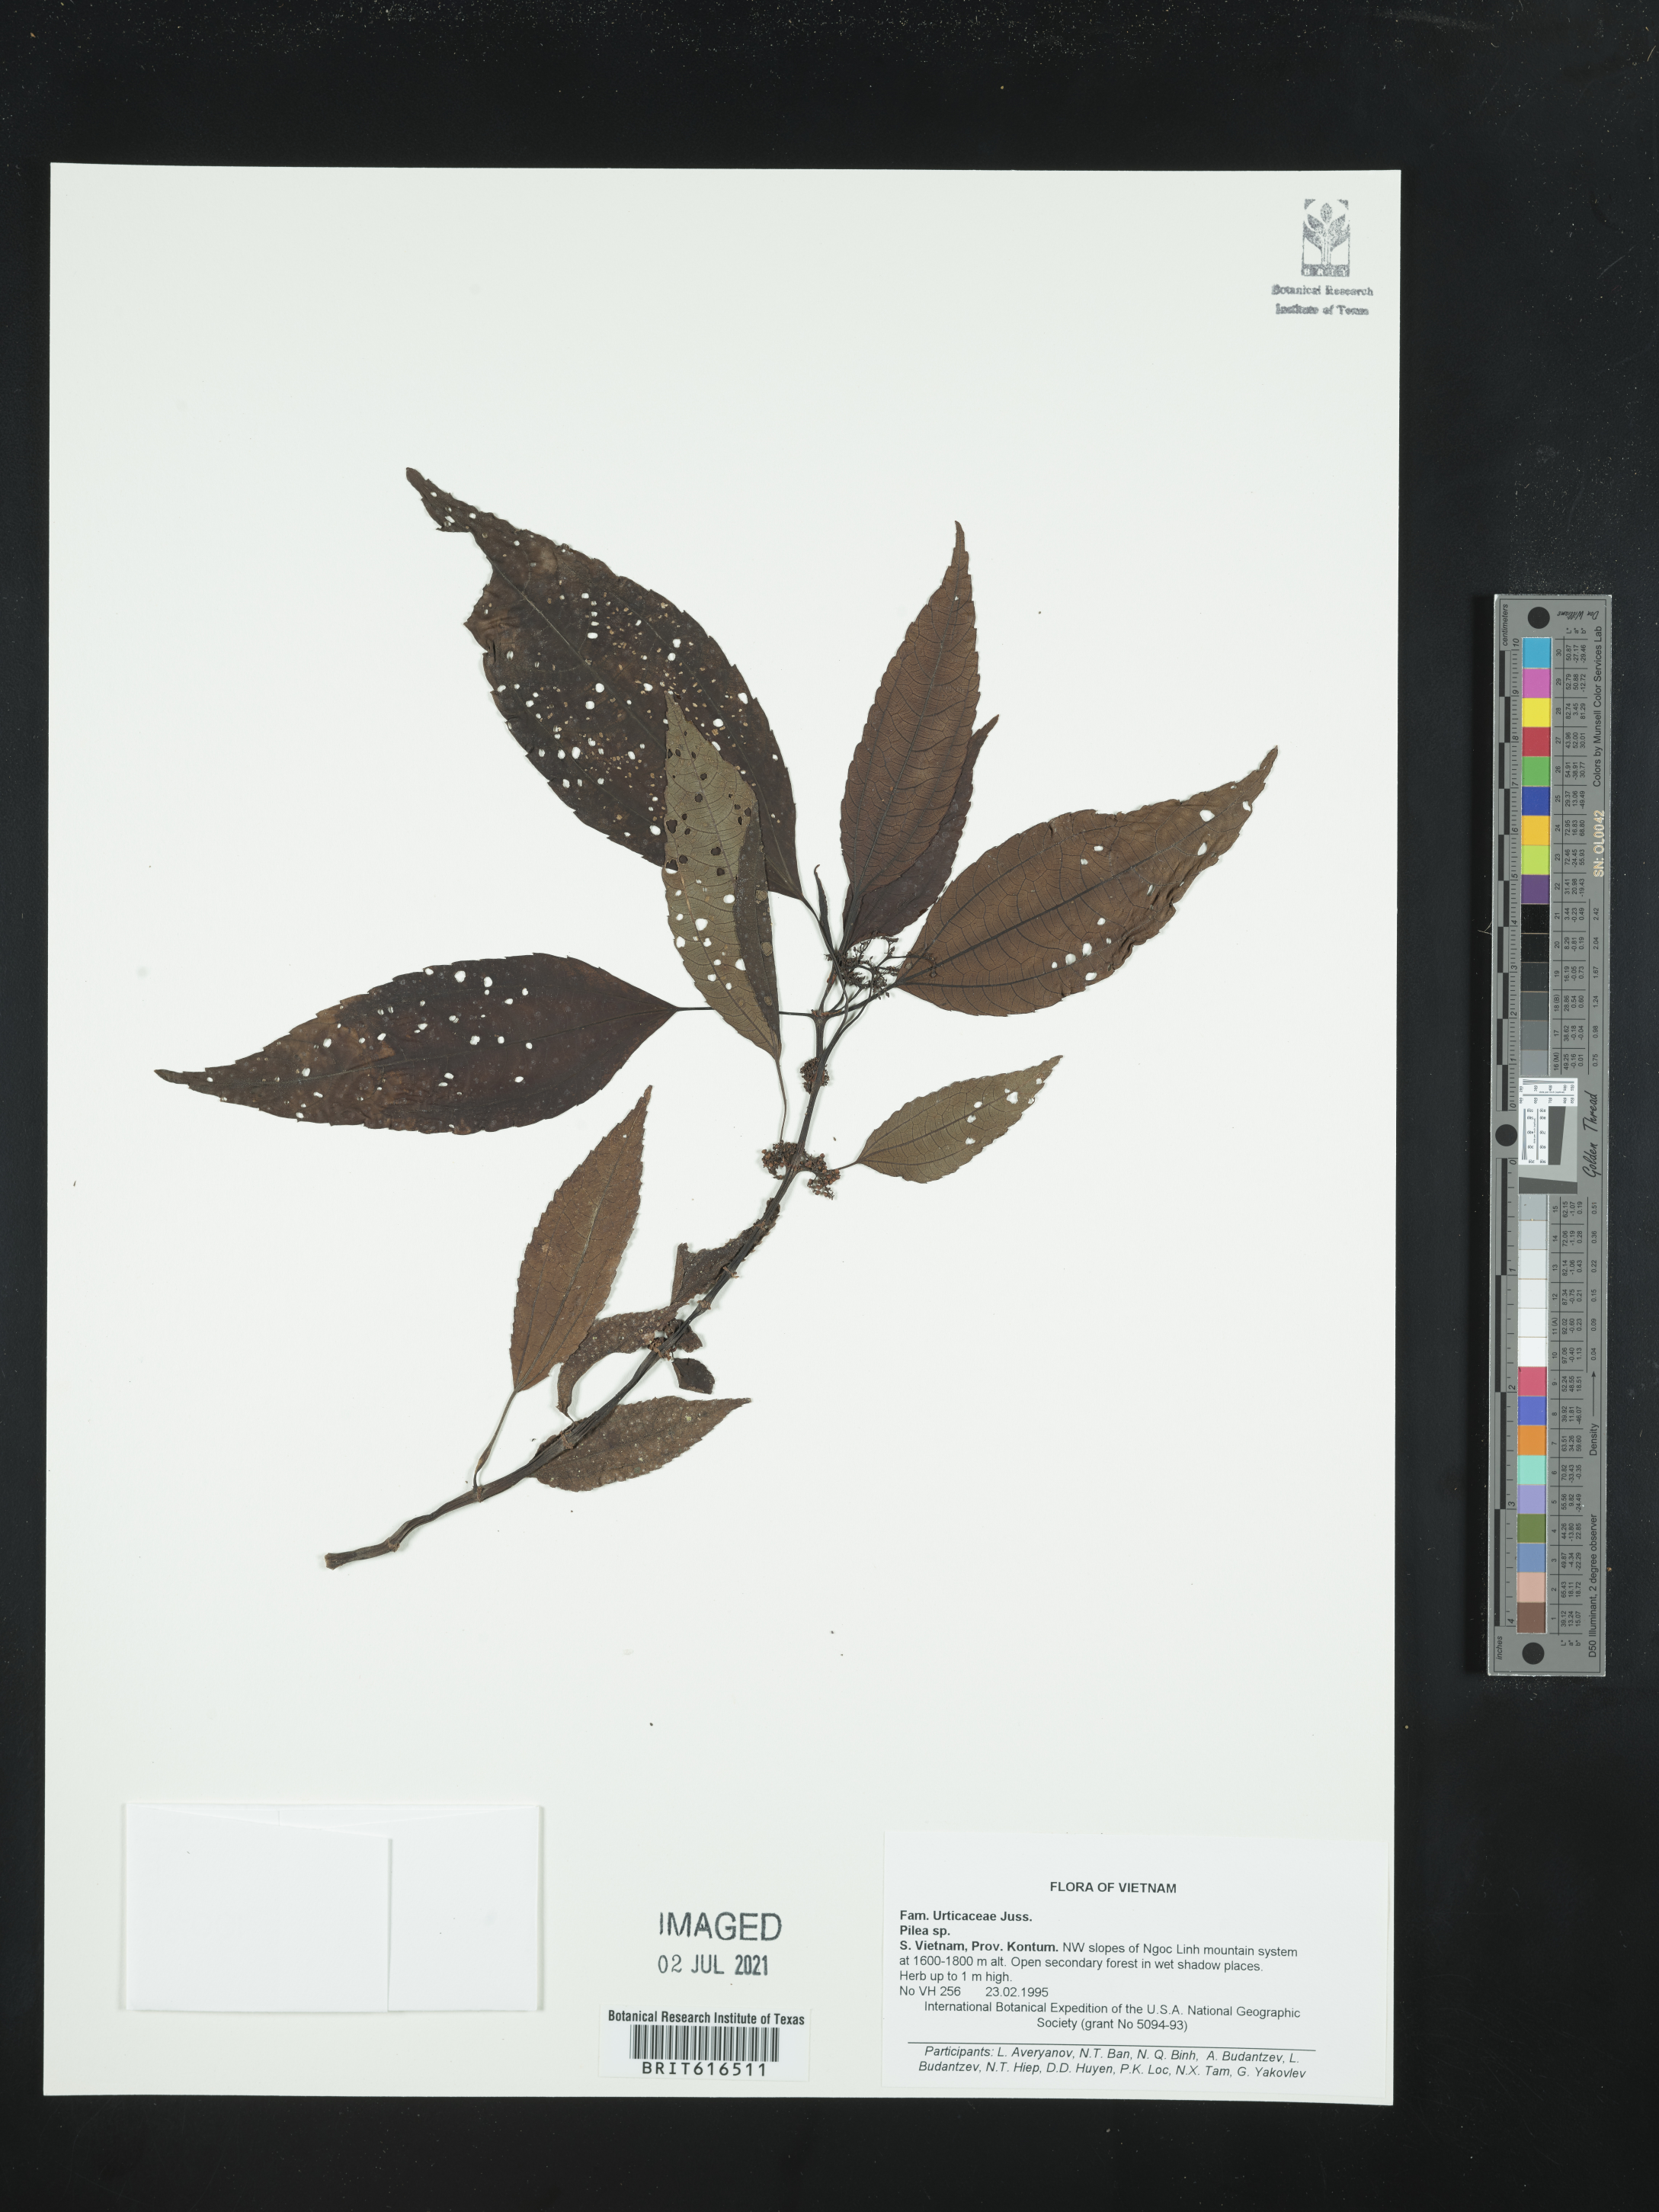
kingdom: Plantae
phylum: Tracheophyta
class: Magnoliopsida
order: Rosales
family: Urticaceae
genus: Pilea
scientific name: Pilea
